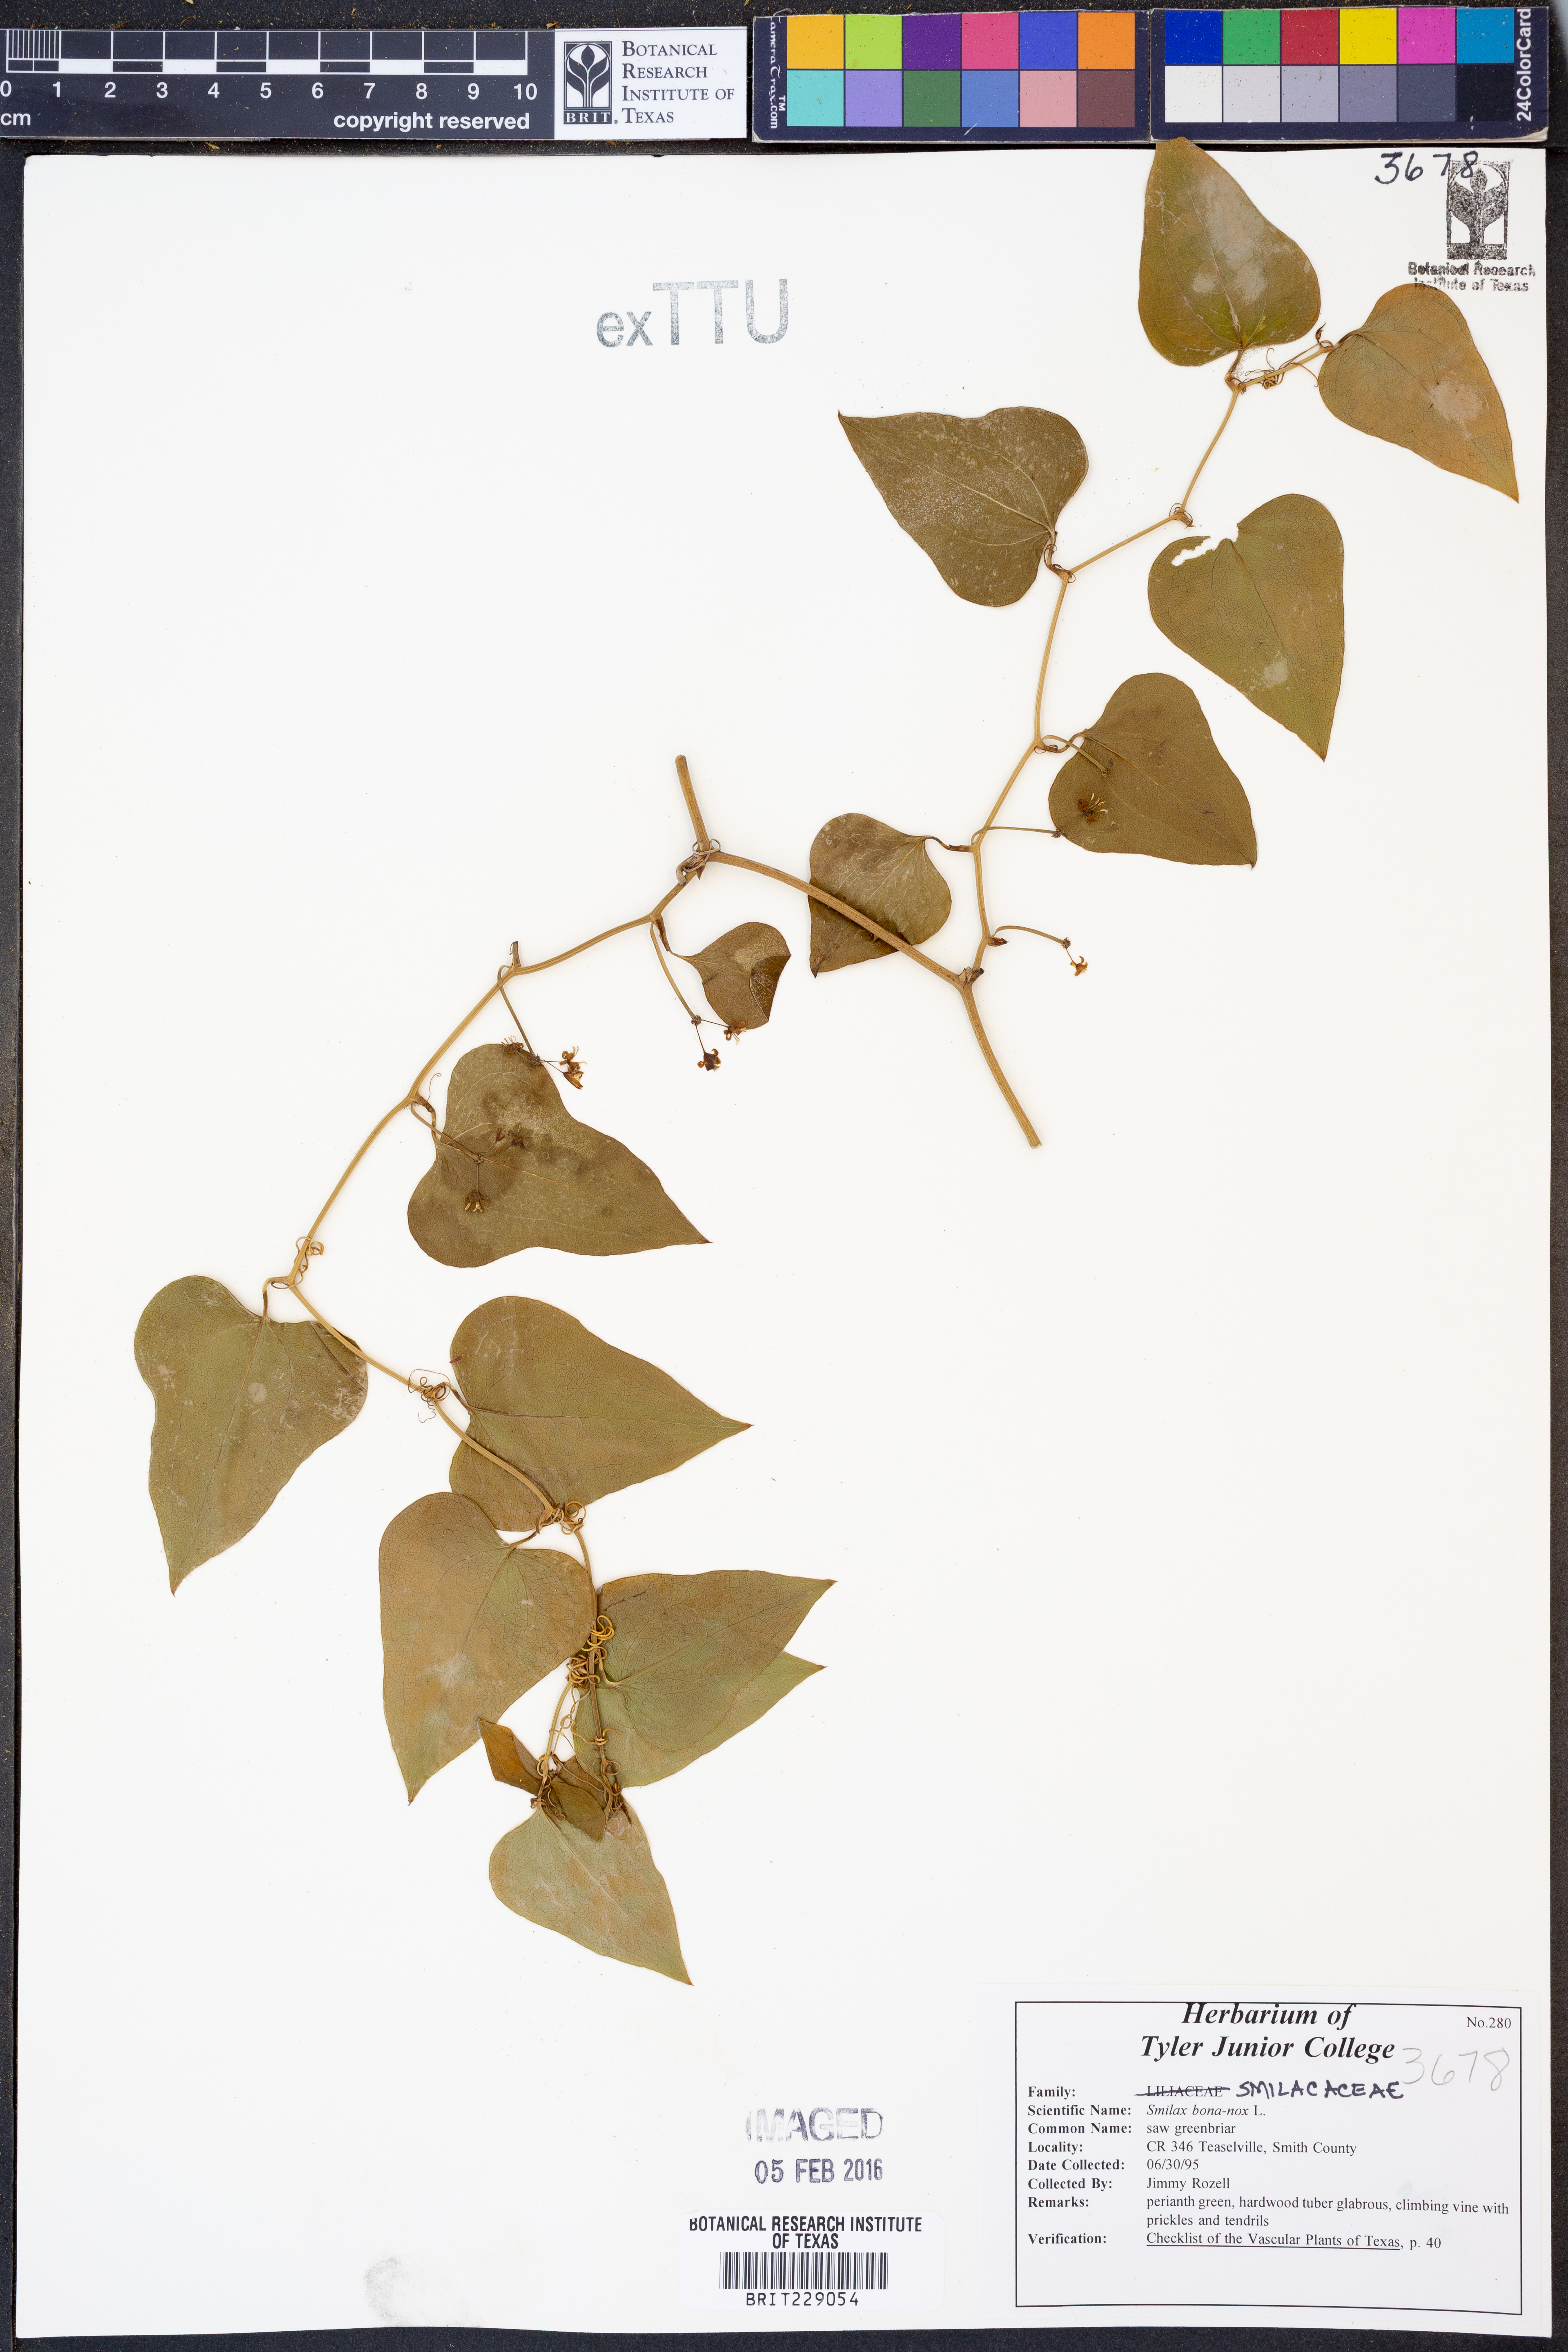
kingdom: Plantae
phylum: Tracheophyta
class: Liliopsida
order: Liliales
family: Smilacaceae
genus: Smilax
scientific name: Smilax bona-nox
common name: Catbrier
